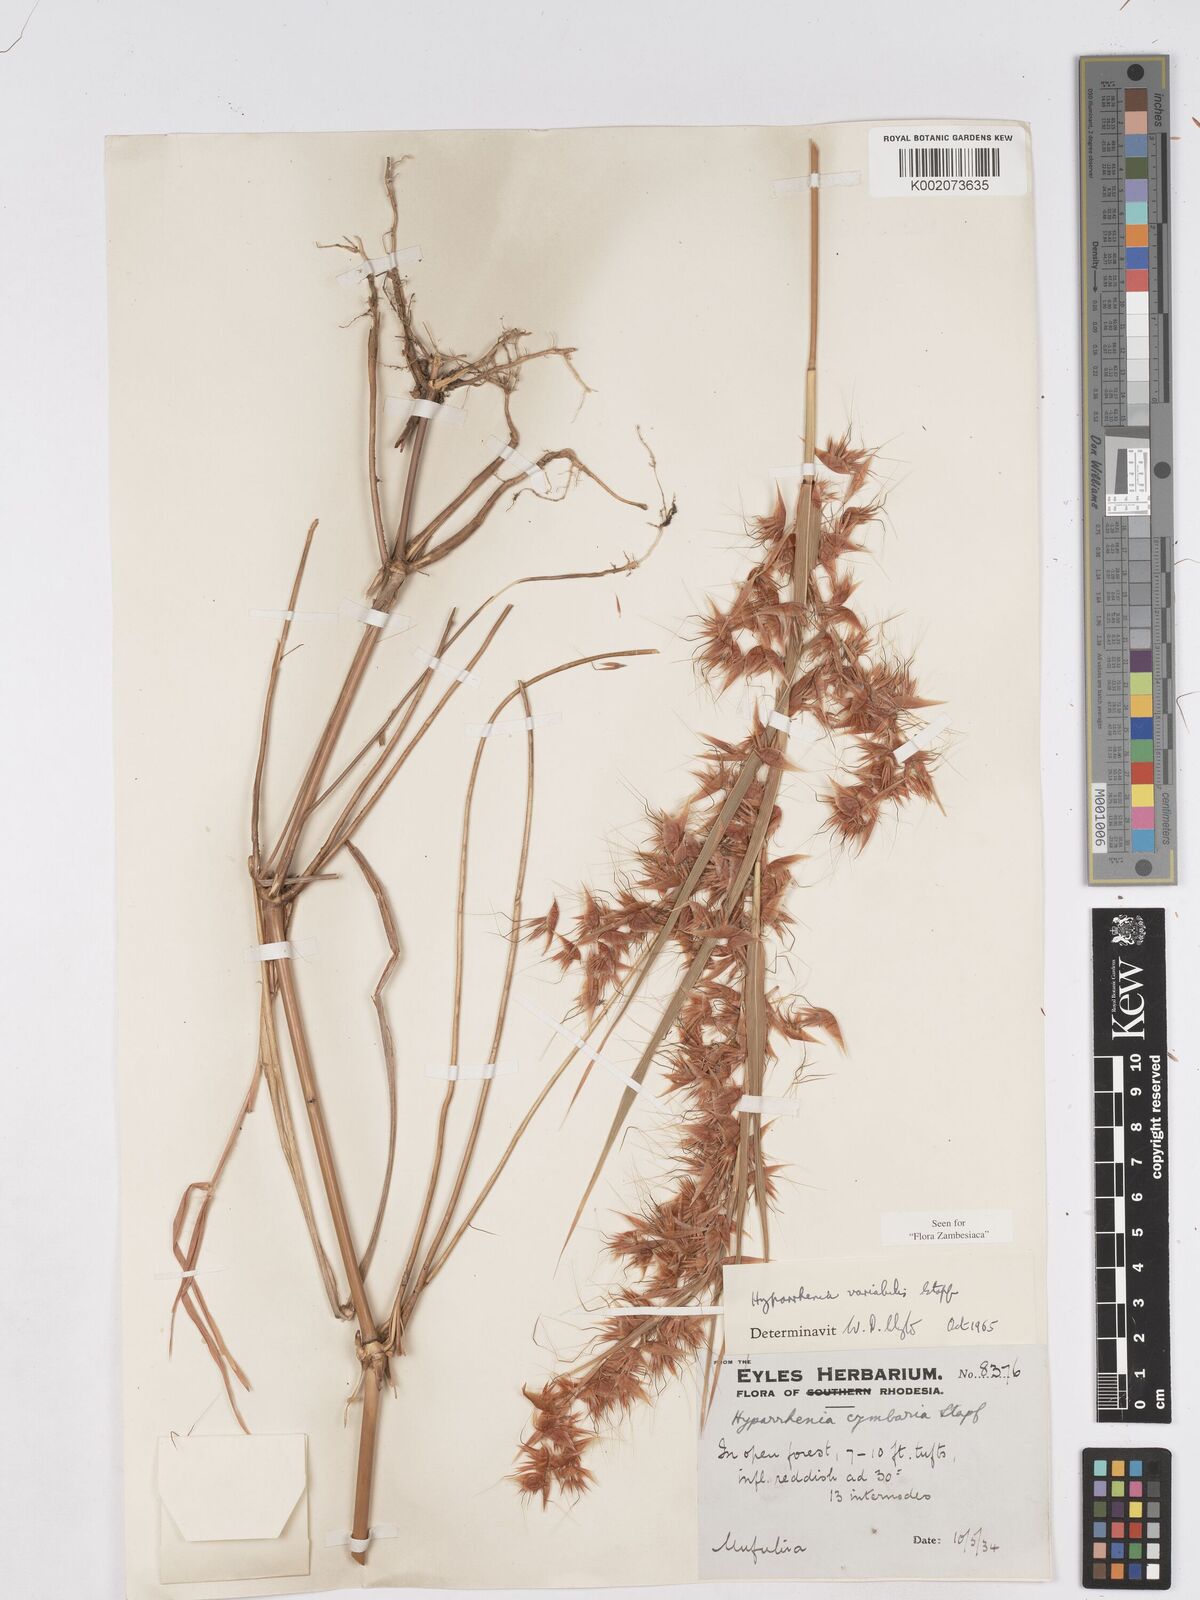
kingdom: Plantae
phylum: Tracheophyta
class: Liliopsida
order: Poales
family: Poaceae
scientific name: Poaceae
